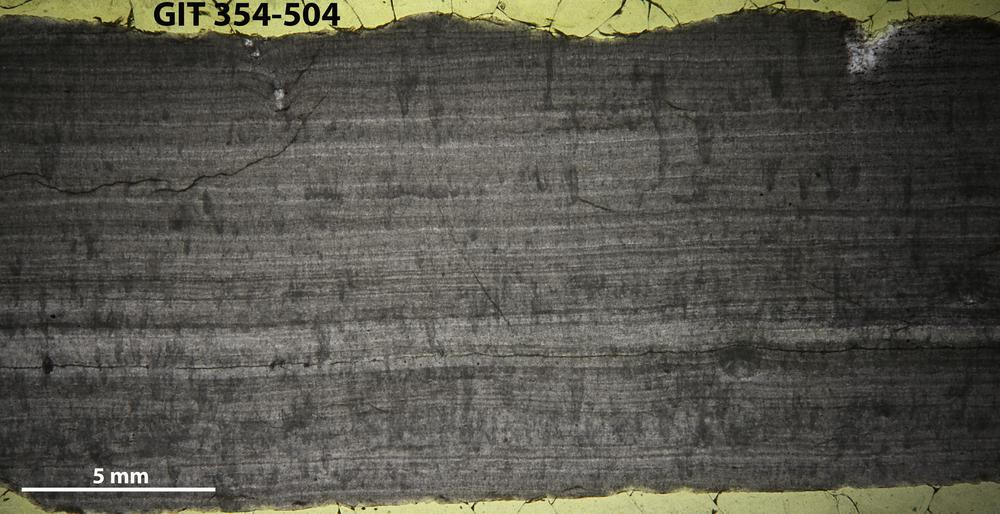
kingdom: Animalia
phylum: Porifera
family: Densastromatidae
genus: Densastroma
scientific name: Densastroma Actinostroma pexisum
